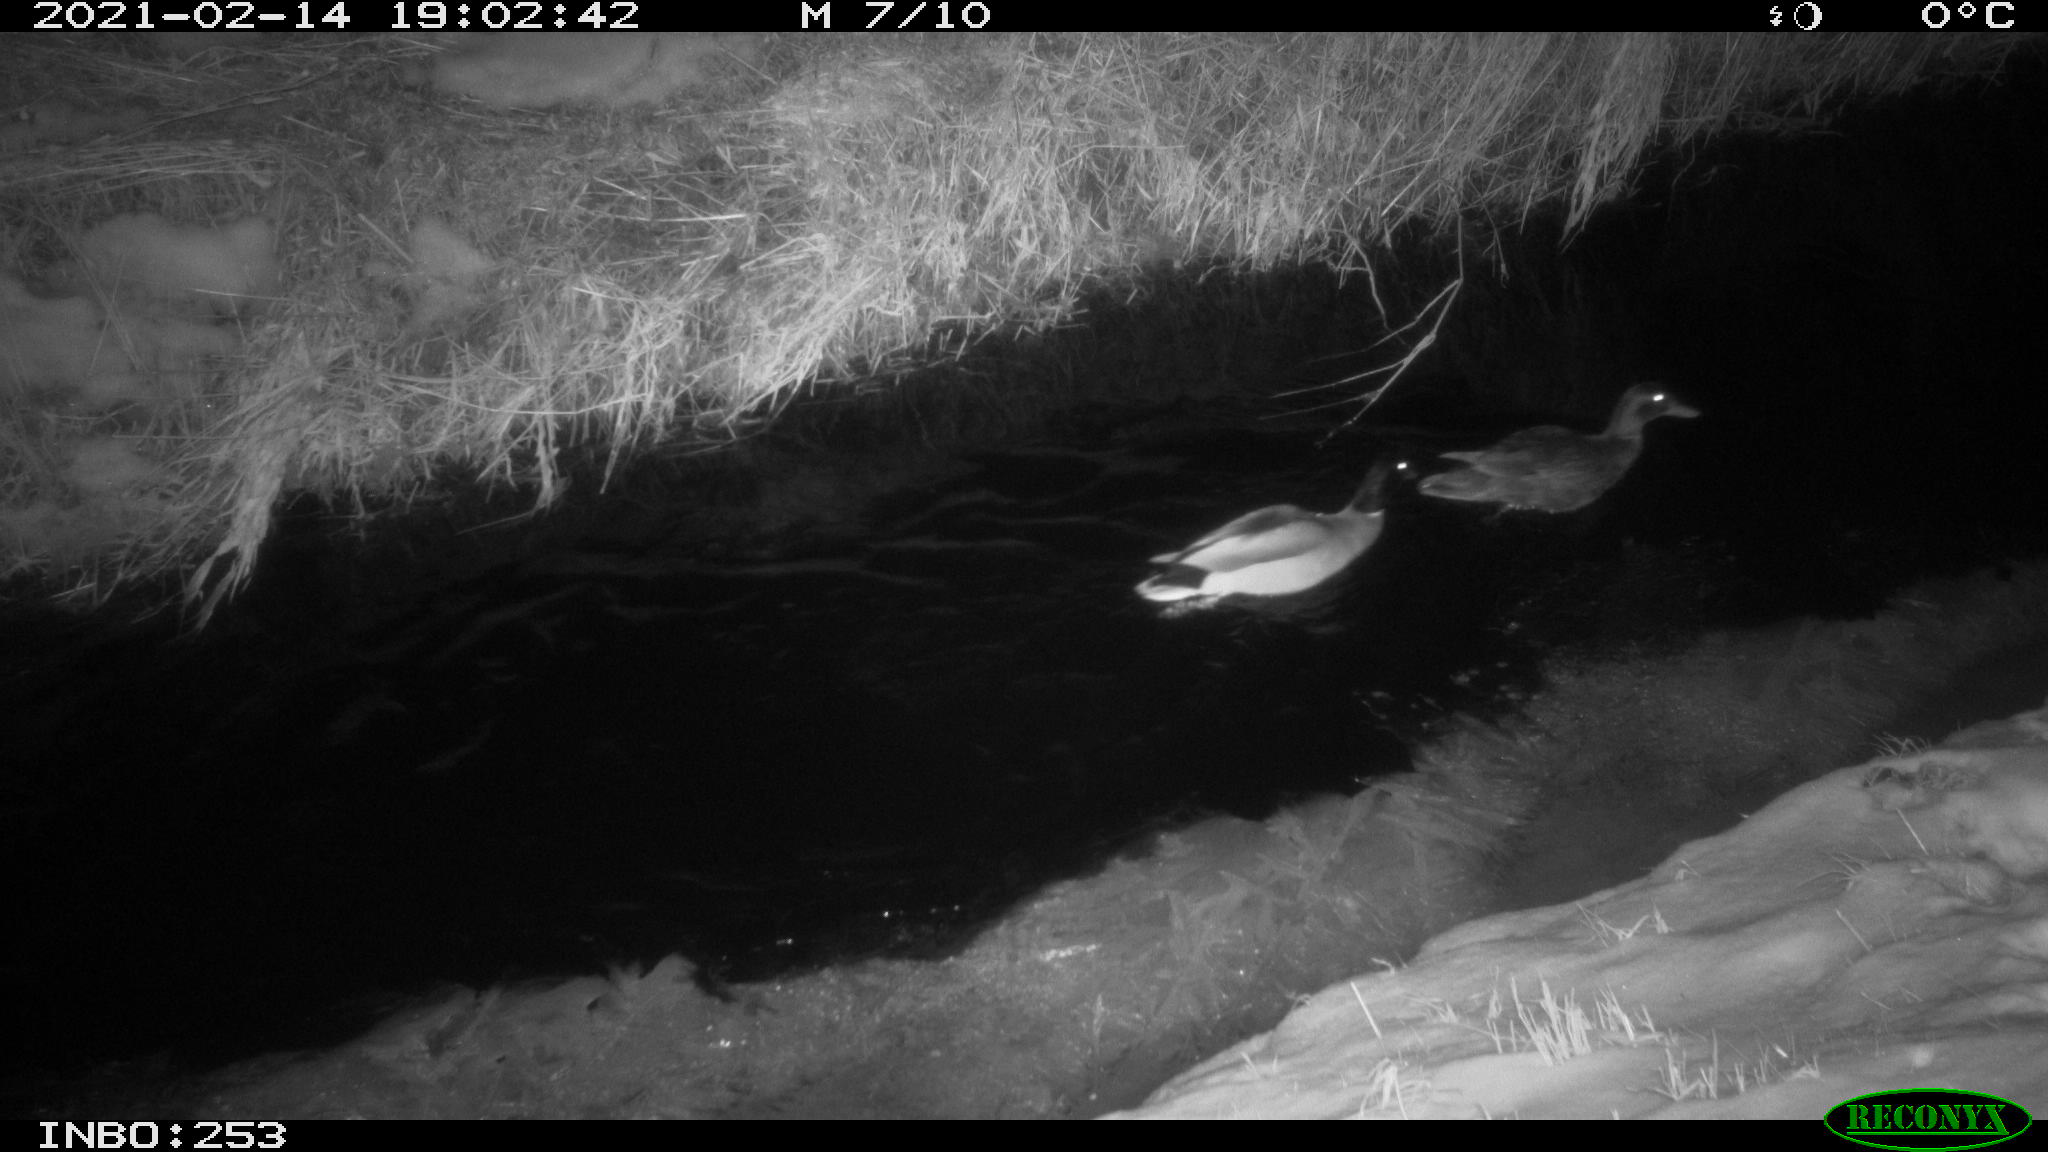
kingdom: Animalia
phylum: Chordata
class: Aves
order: Anseriformes
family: Anatidae
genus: Anas
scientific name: Anas platyrhynchos
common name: Mallard
